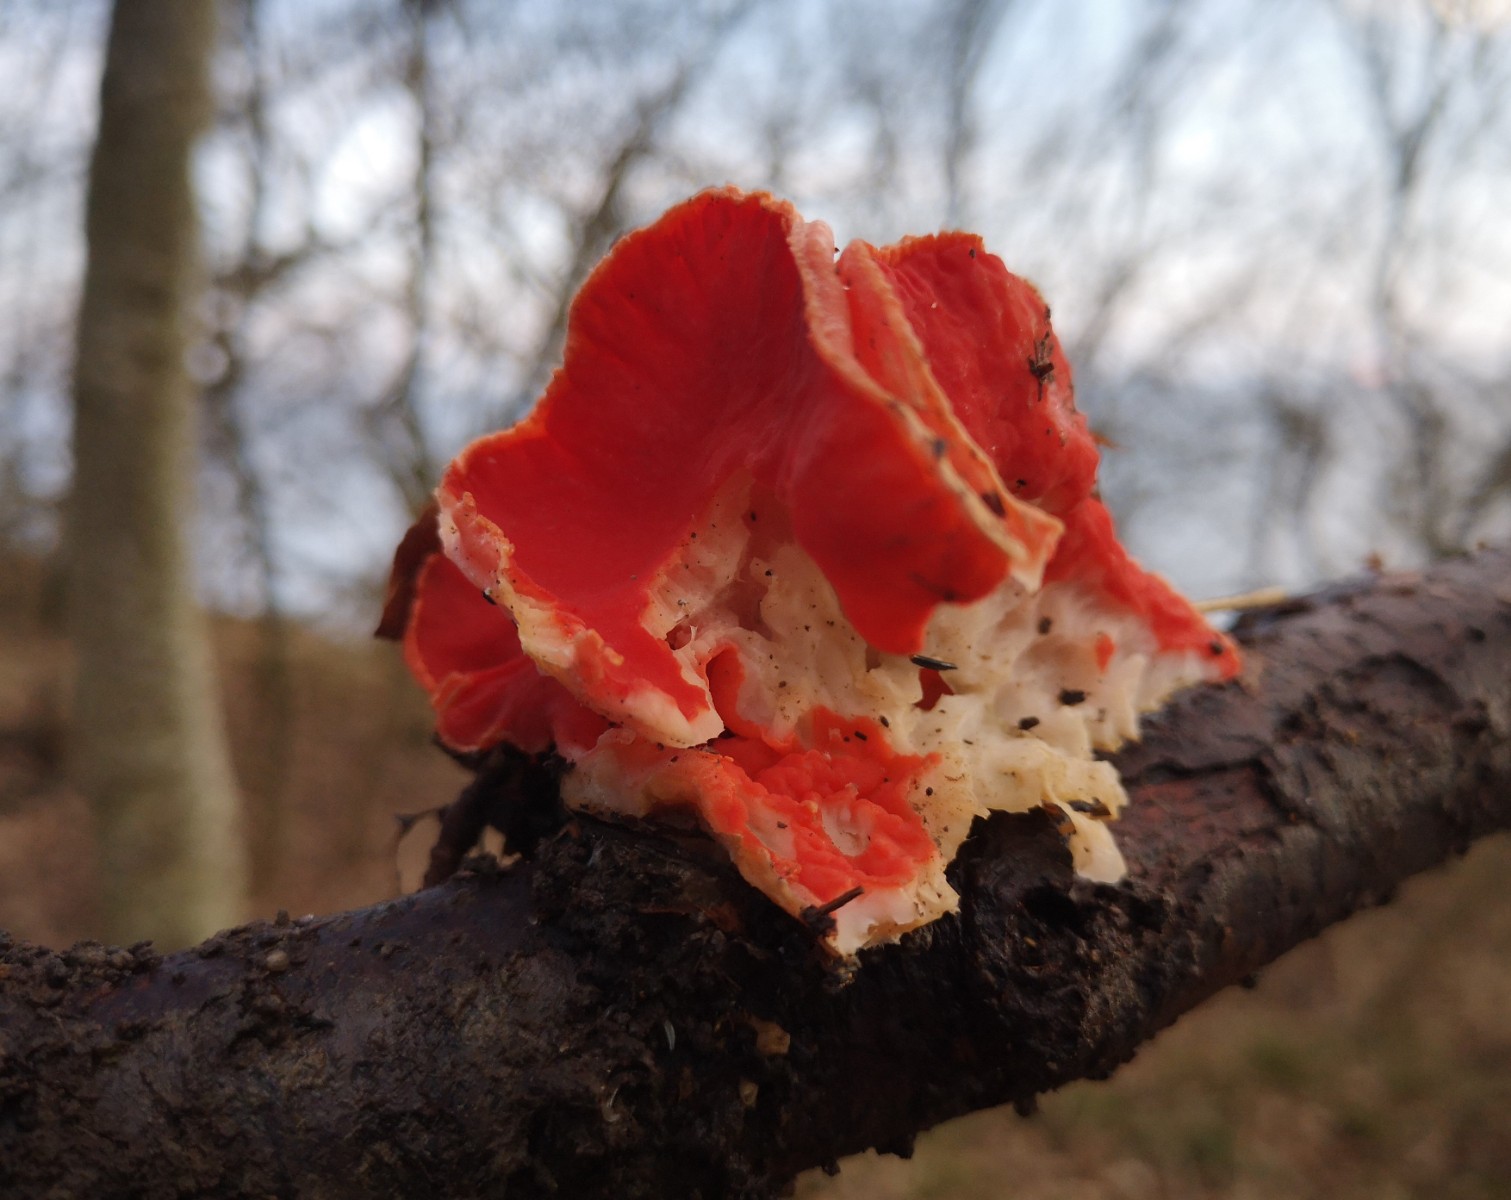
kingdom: Fungi
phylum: Ascomycota
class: Pezizomycetes
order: Pezizales
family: Sarcoscyphaceae
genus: Sarcoscypha
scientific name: Sarcoscypha
